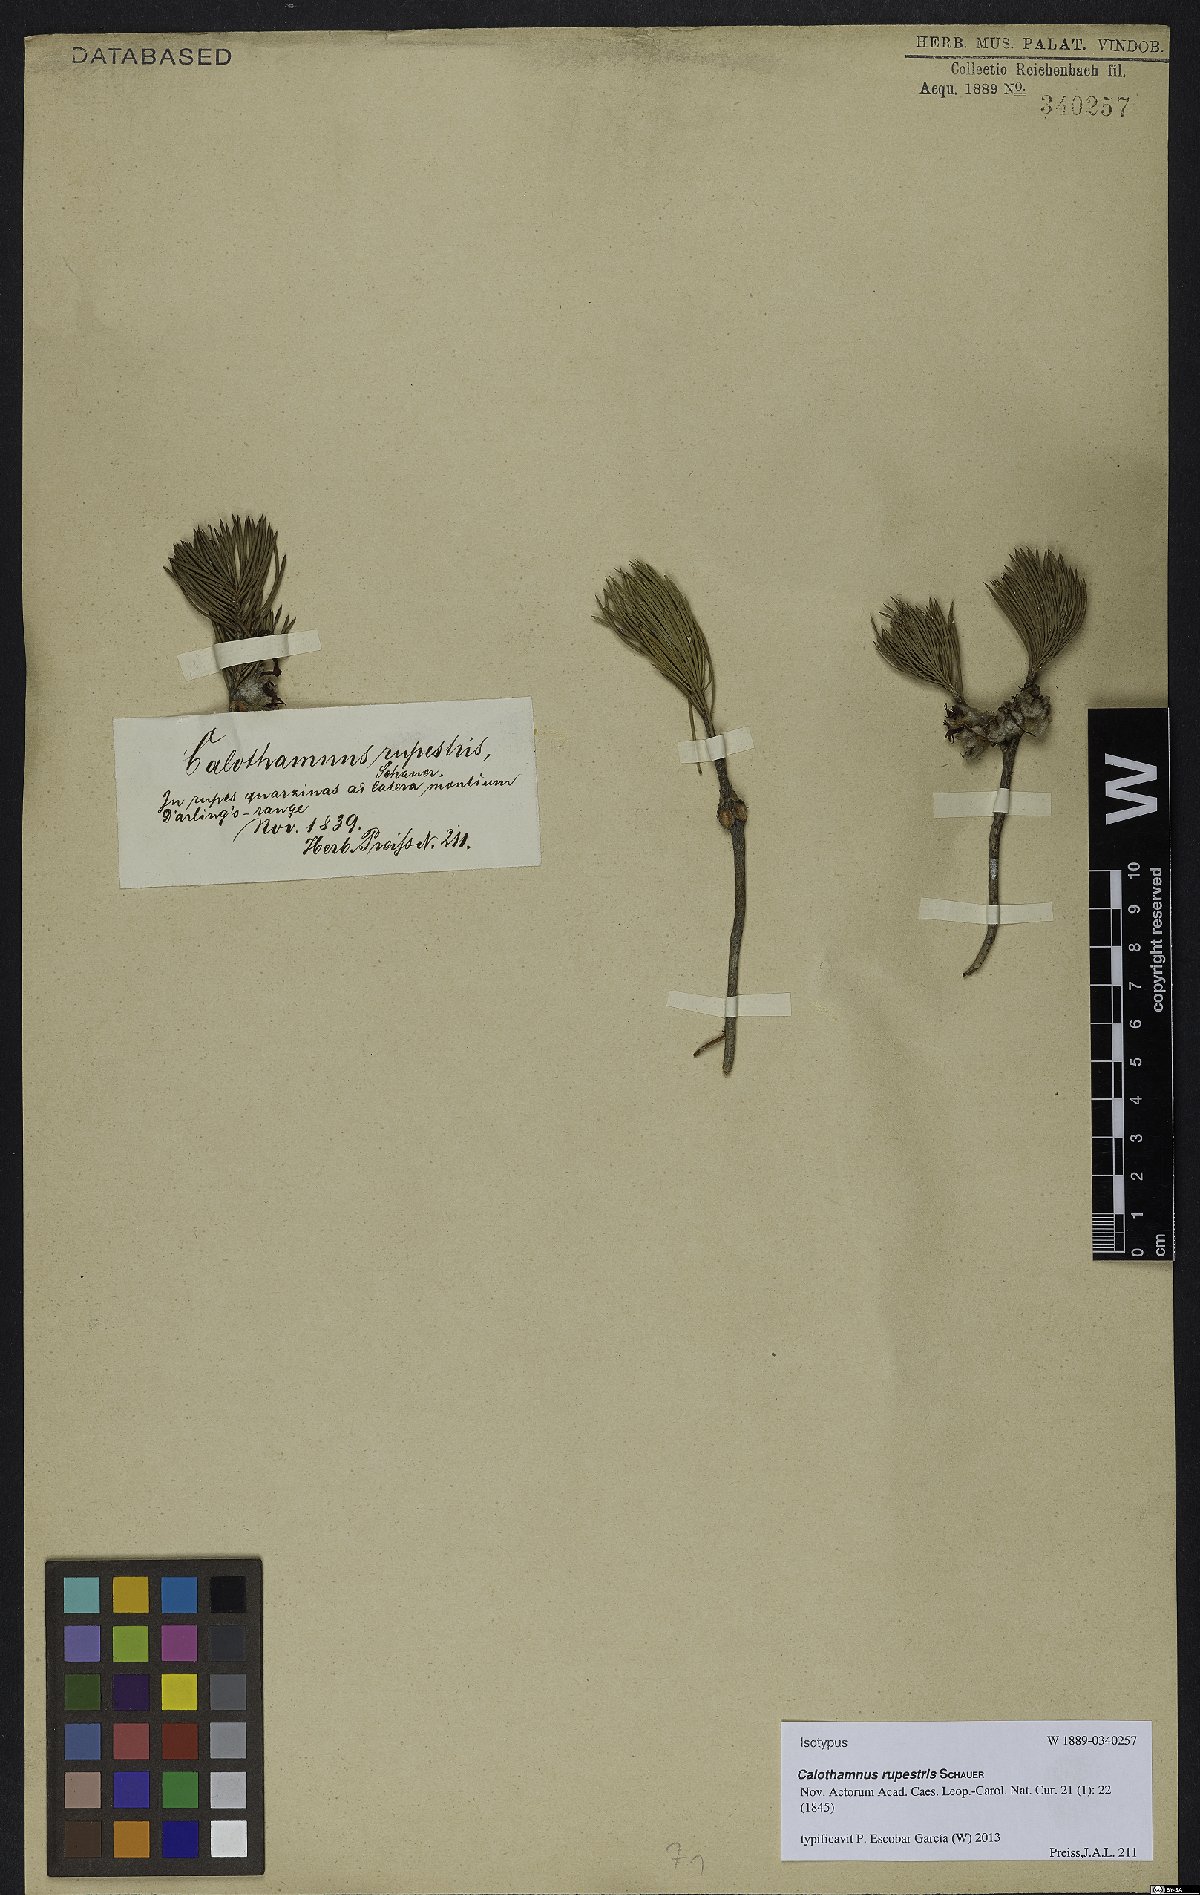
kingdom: Plantae
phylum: Tracheophyta
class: Magnoliopsida
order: Myrtales
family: Myrtaceae
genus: Melaleuca
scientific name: Melaleuca rupestris
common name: Cliff net-bush
